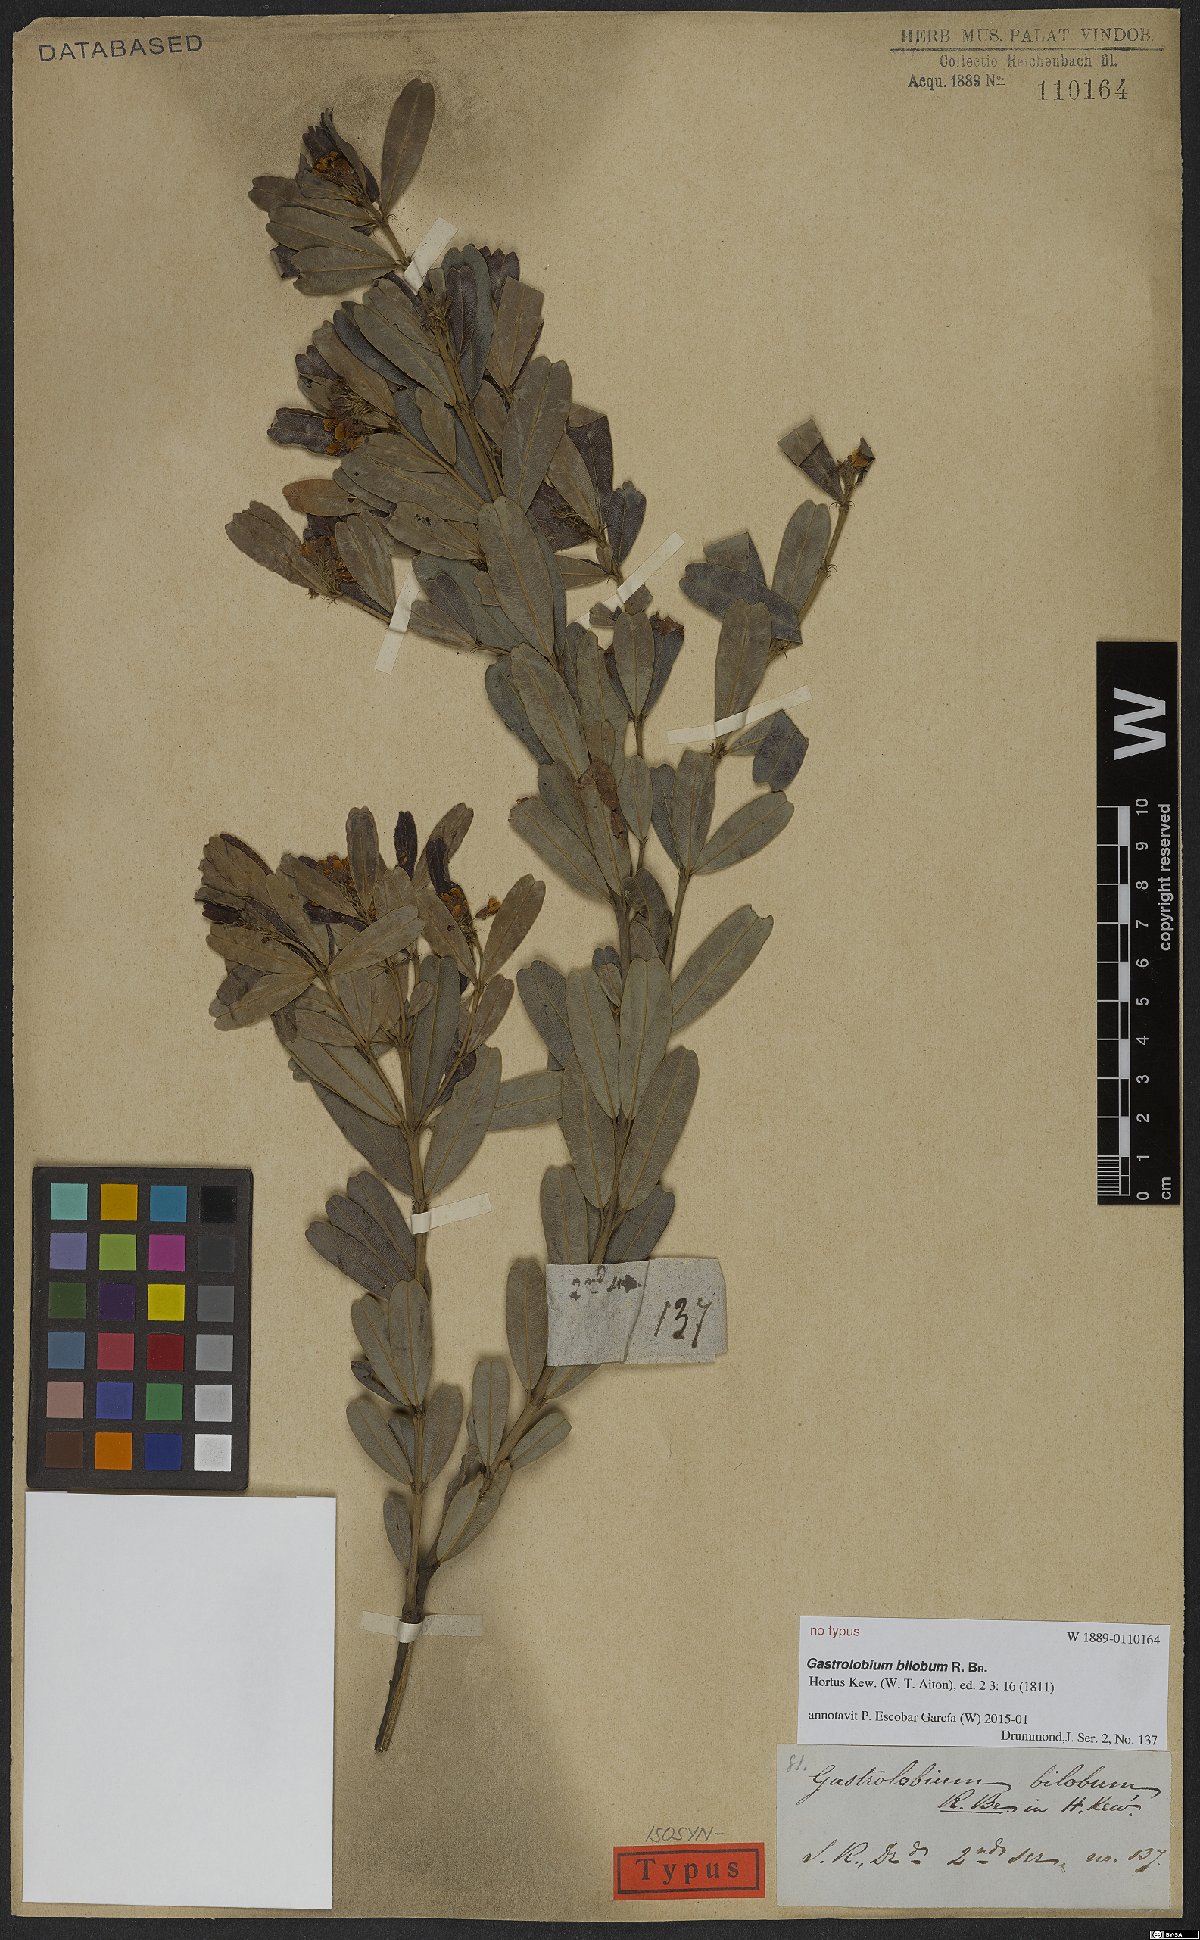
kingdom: Plantae
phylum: Tracheophyta
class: Magnoliopsida
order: Fabales
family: Fabaceae
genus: Gastrolobium
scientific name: Gastrolobium bilobum
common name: Heart-leaf poisonbush
